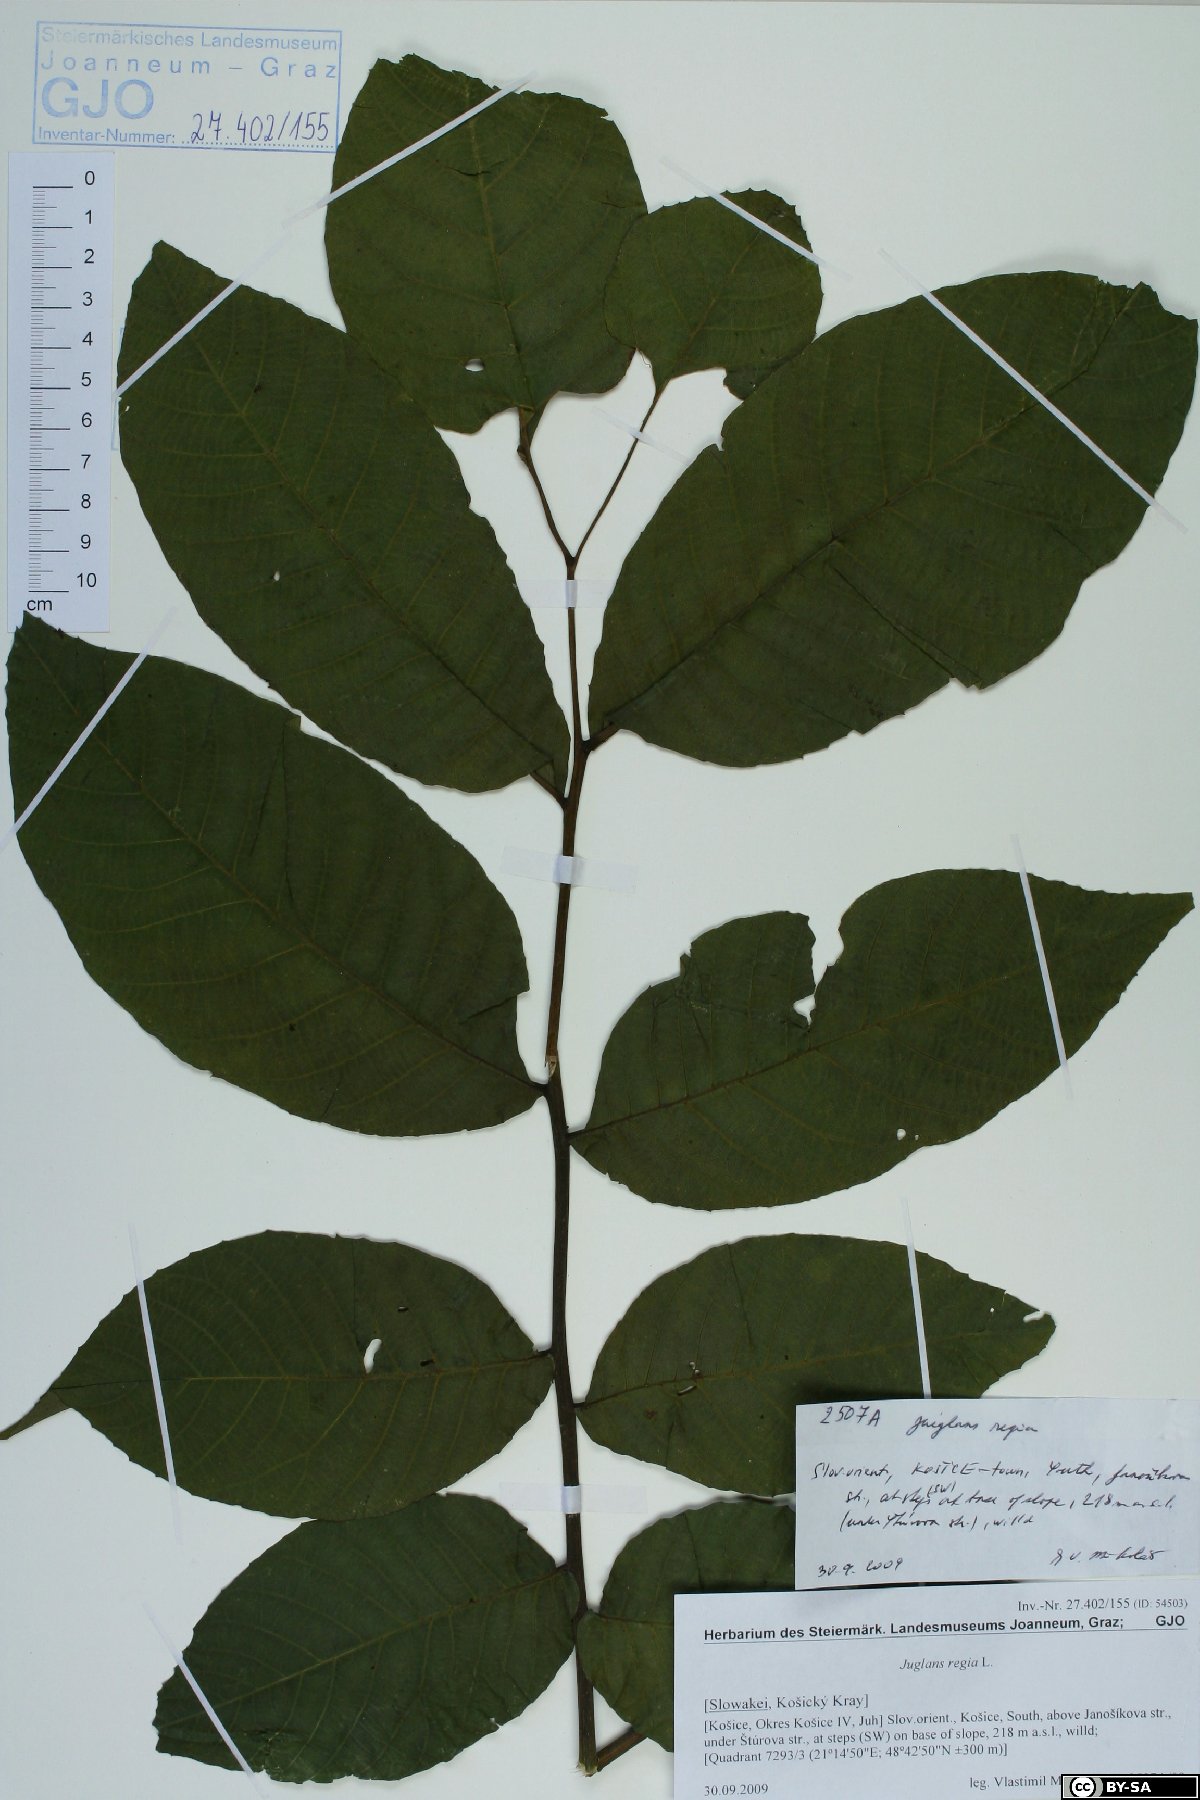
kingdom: Plantae
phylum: Tracheophyta
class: Magnoliopsida
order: Fagales
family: Juglandaceae
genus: Juglans
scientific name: Juglans regia
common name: Walnut
